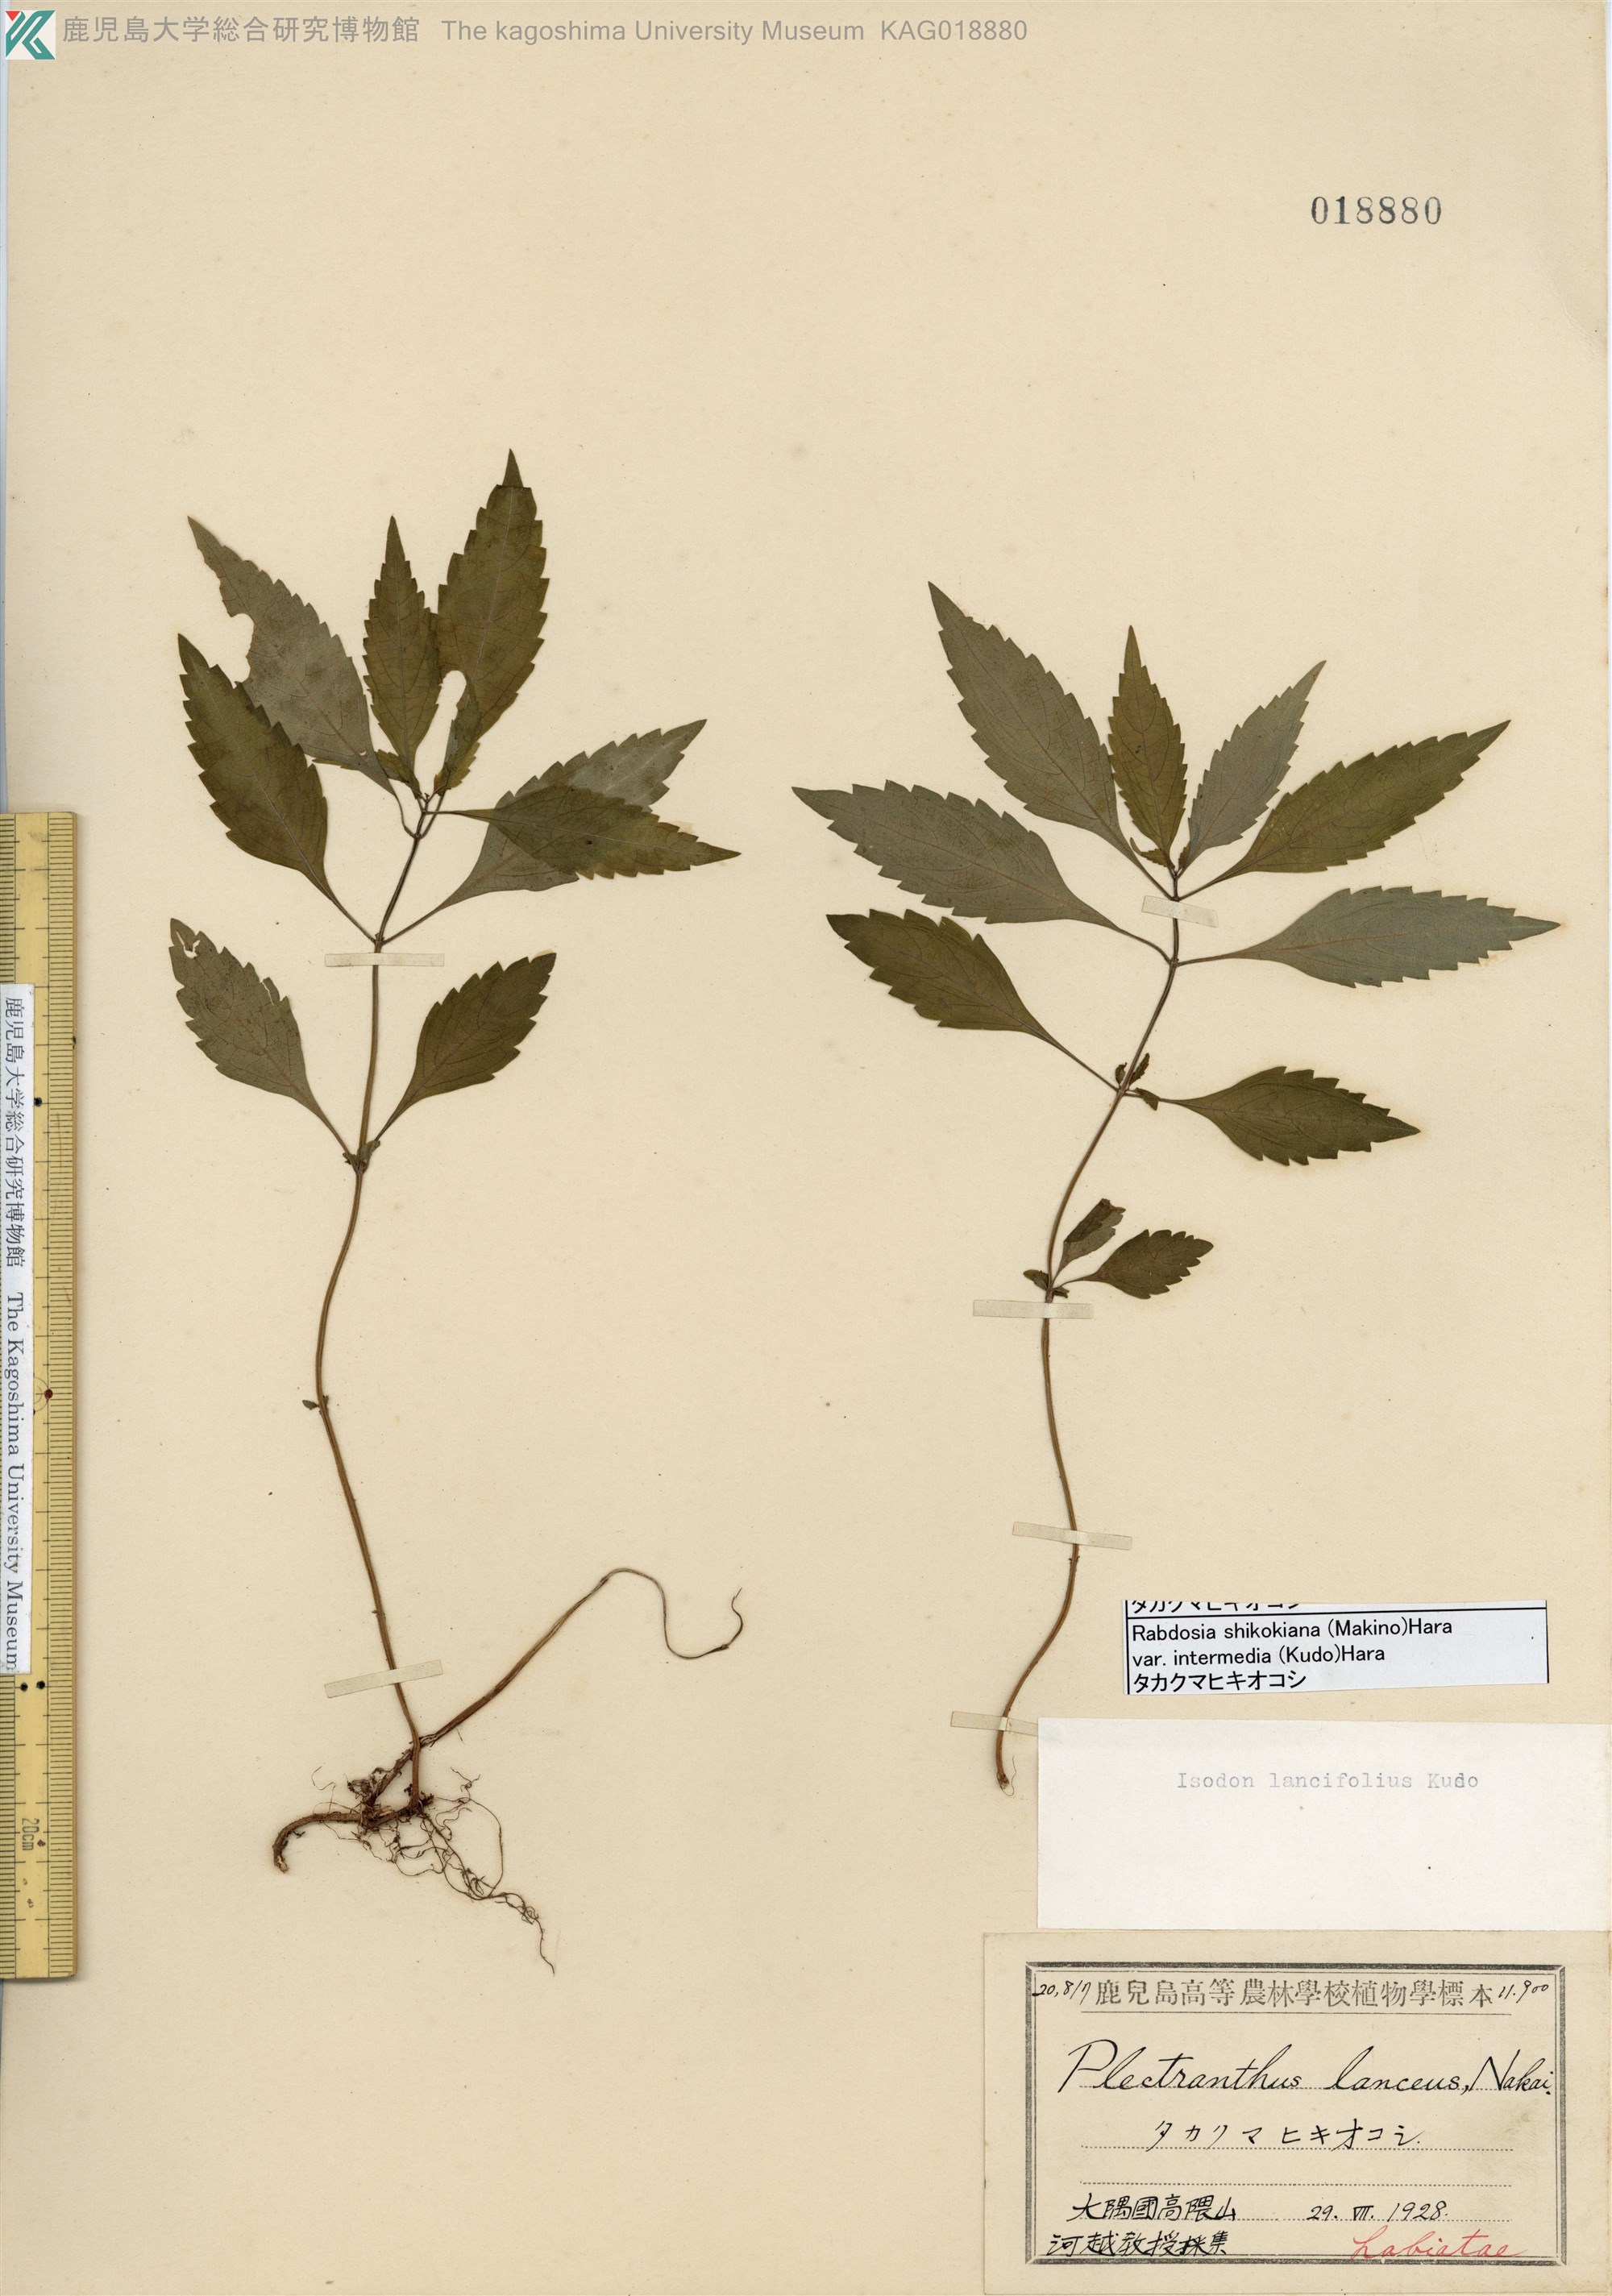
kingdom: Plantae
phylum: Tracheophyta
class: Magnoliopsida
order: Lamiales
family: Lamiaceae
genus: Isodon
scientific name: Isodon shikokianus
